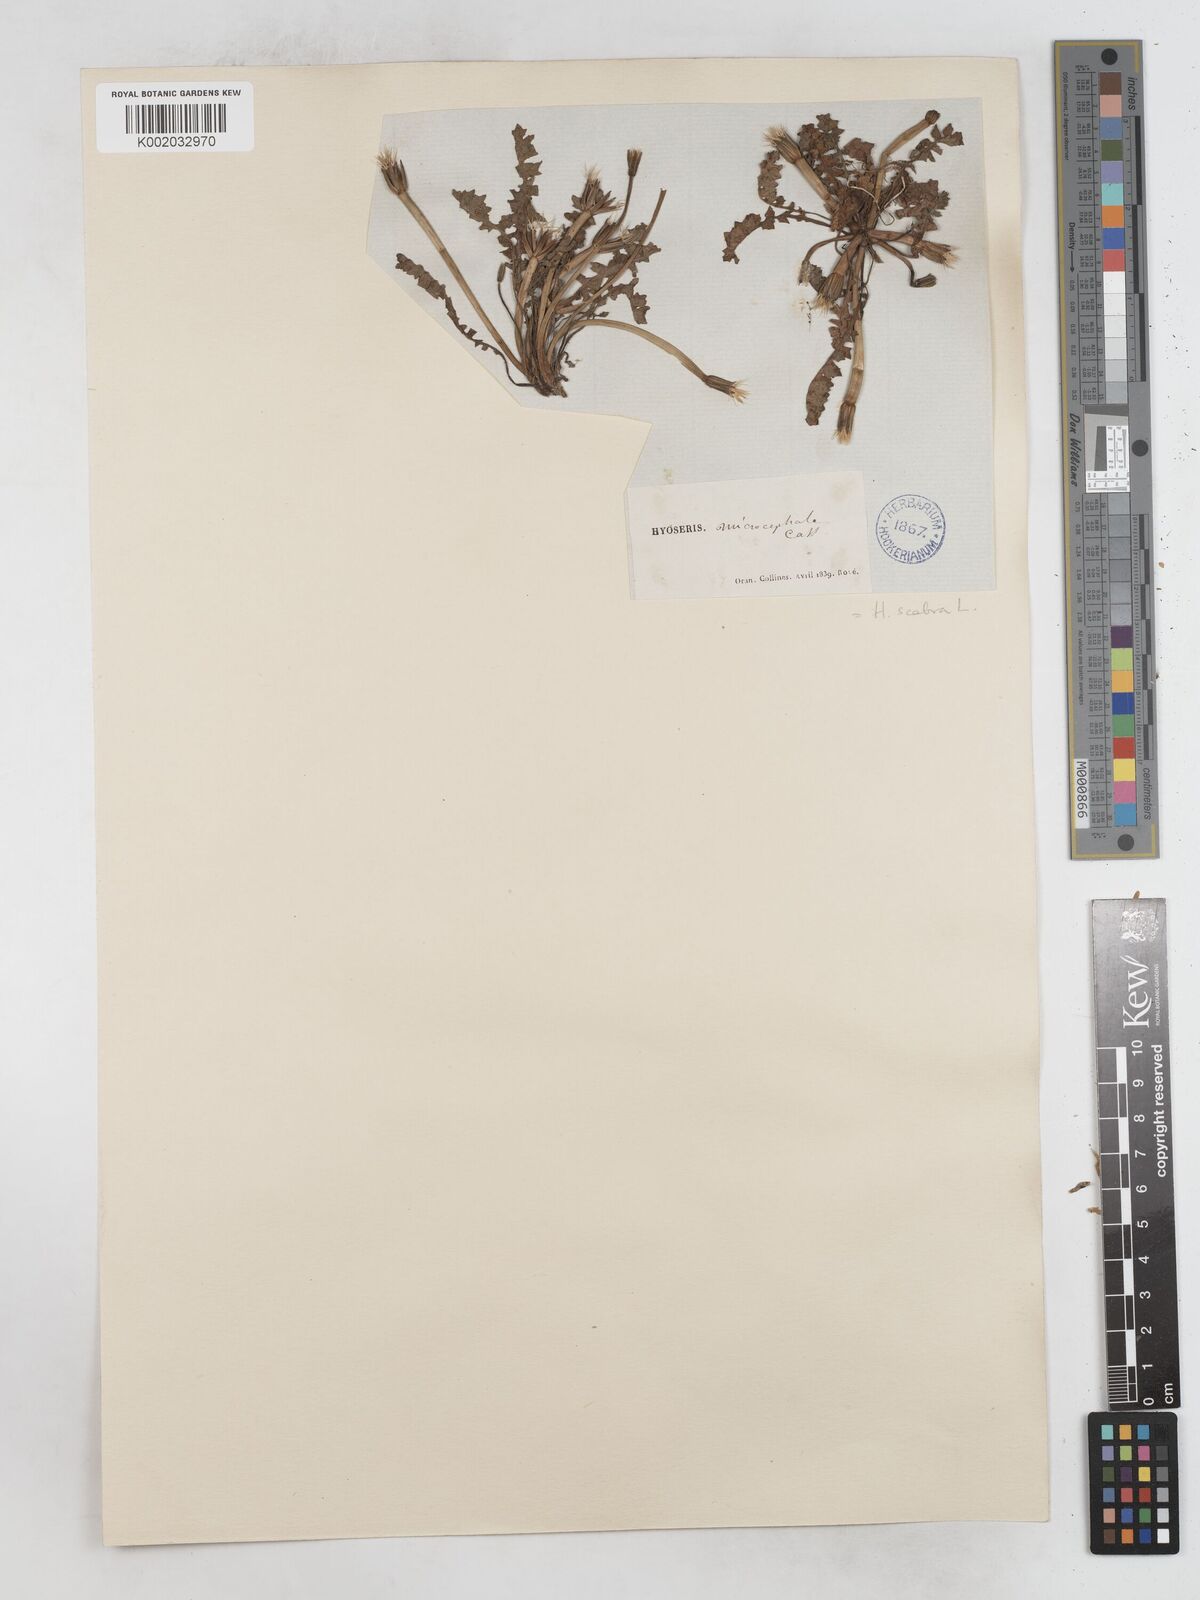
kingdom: Plantae
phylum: Tracheophyta
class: Magnoliopsida
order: Asterales
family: Asteraceae
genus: Hyoseris
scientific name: Hyoseris scabra
